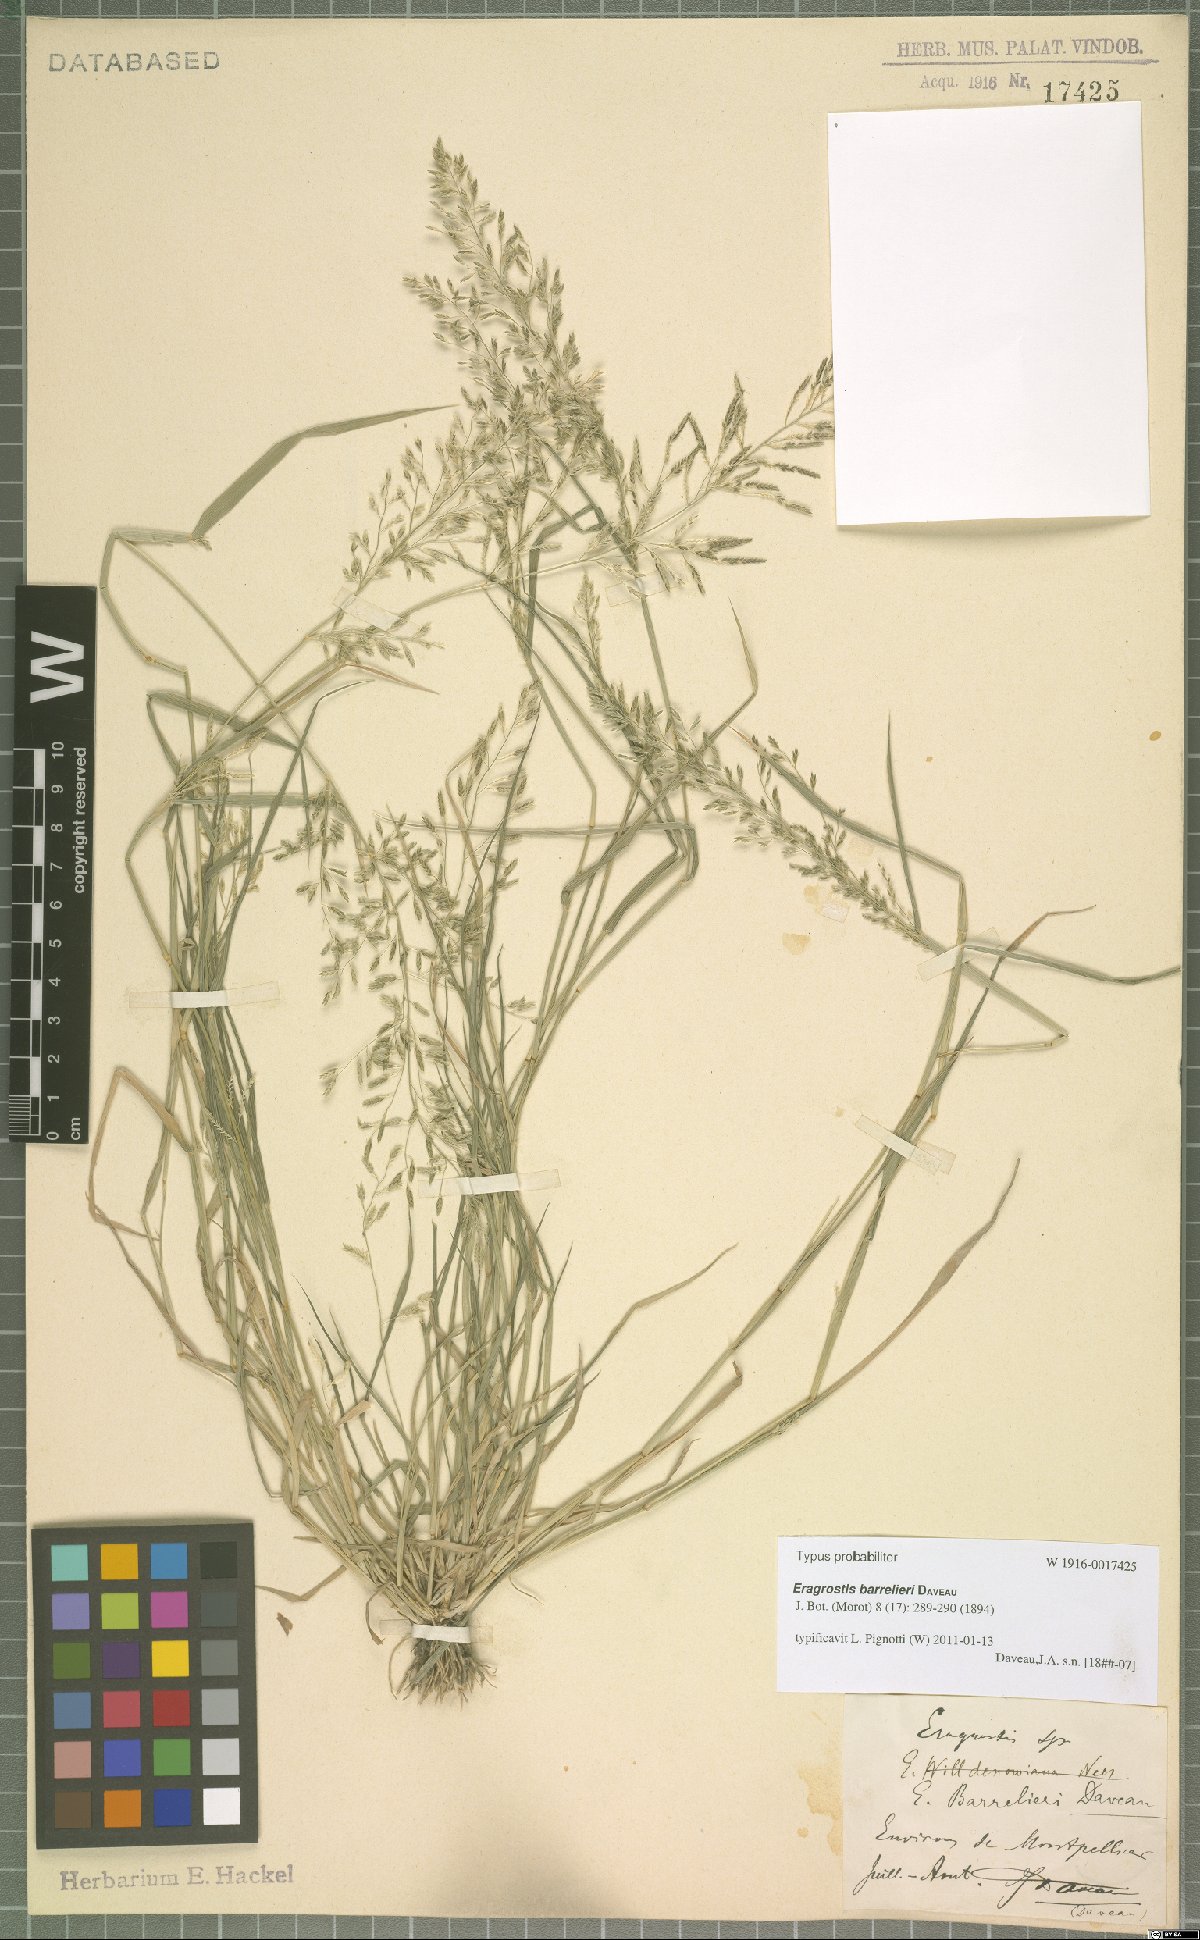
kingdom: Plantae
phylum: Tracheophyta
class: Liliopsida
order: Poales
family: Poaceae
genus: Eragrostis
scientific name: Eragrostis barrelieri
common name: Mediterranean lovegrass
